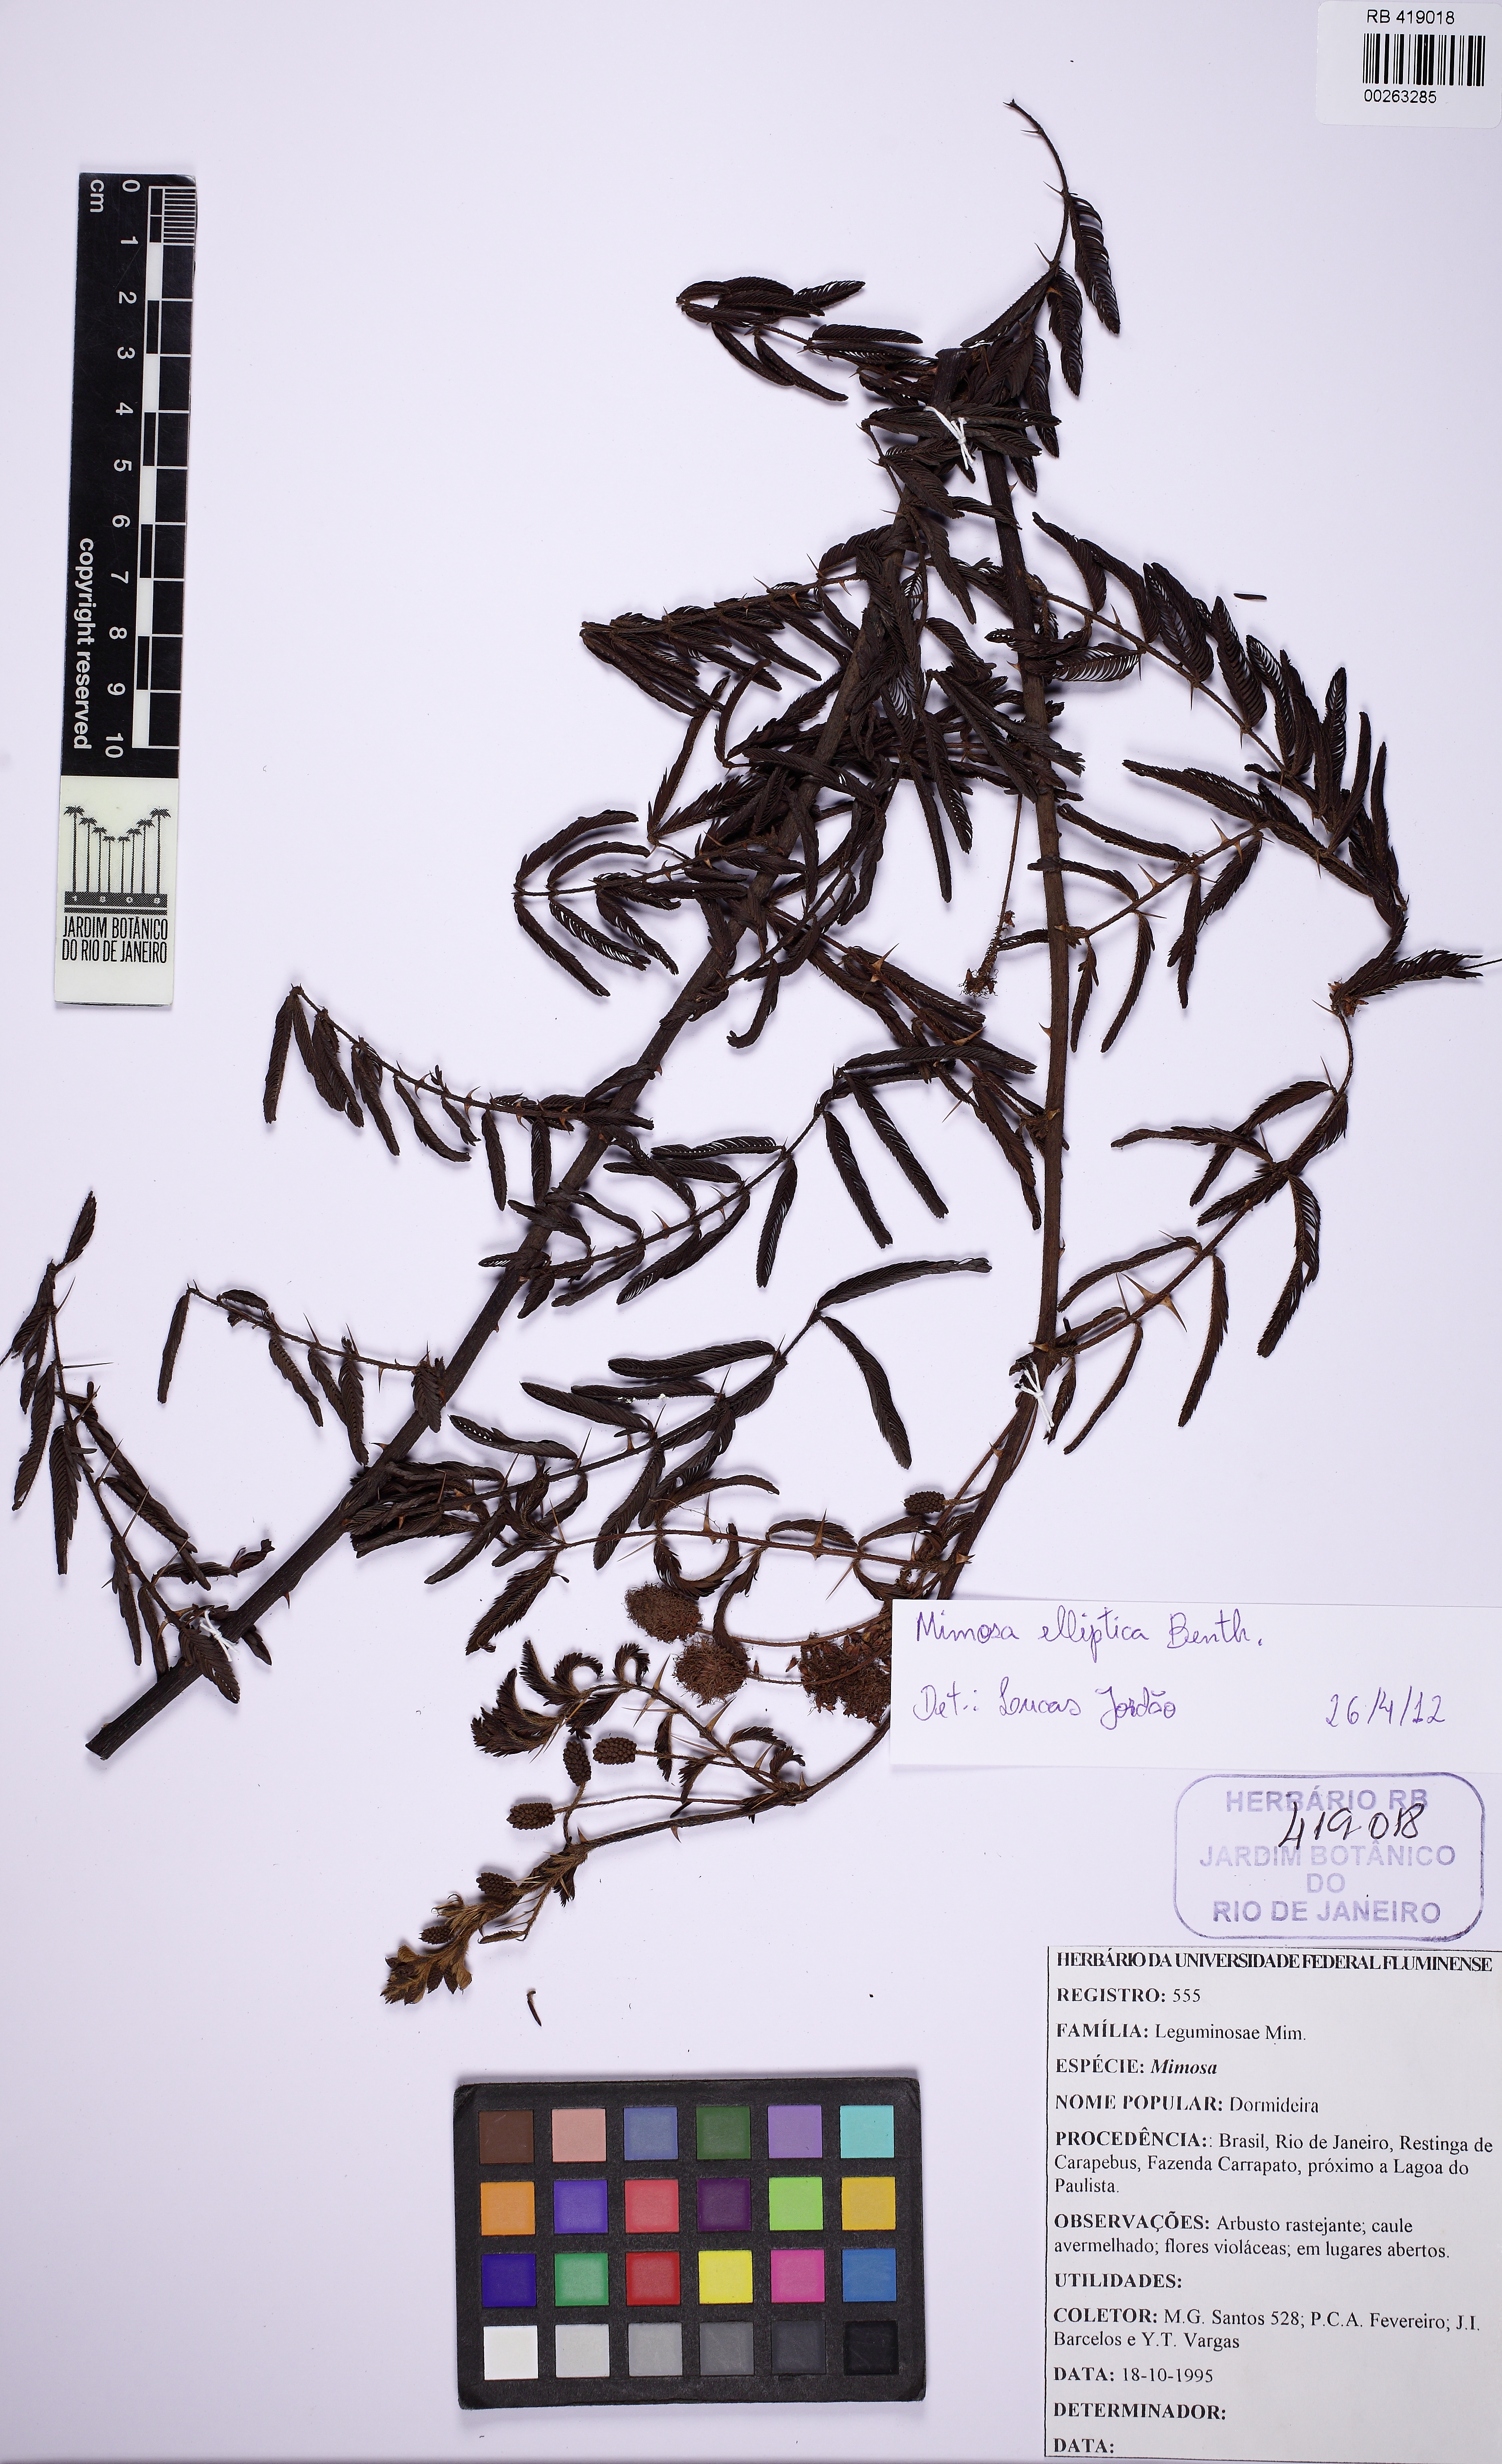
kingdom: Plantae
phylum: Tracheophyta
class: Magnoliopsida
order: Fabales
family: Fabaceae
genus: Mimosa
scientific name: Mimosa elliptica
